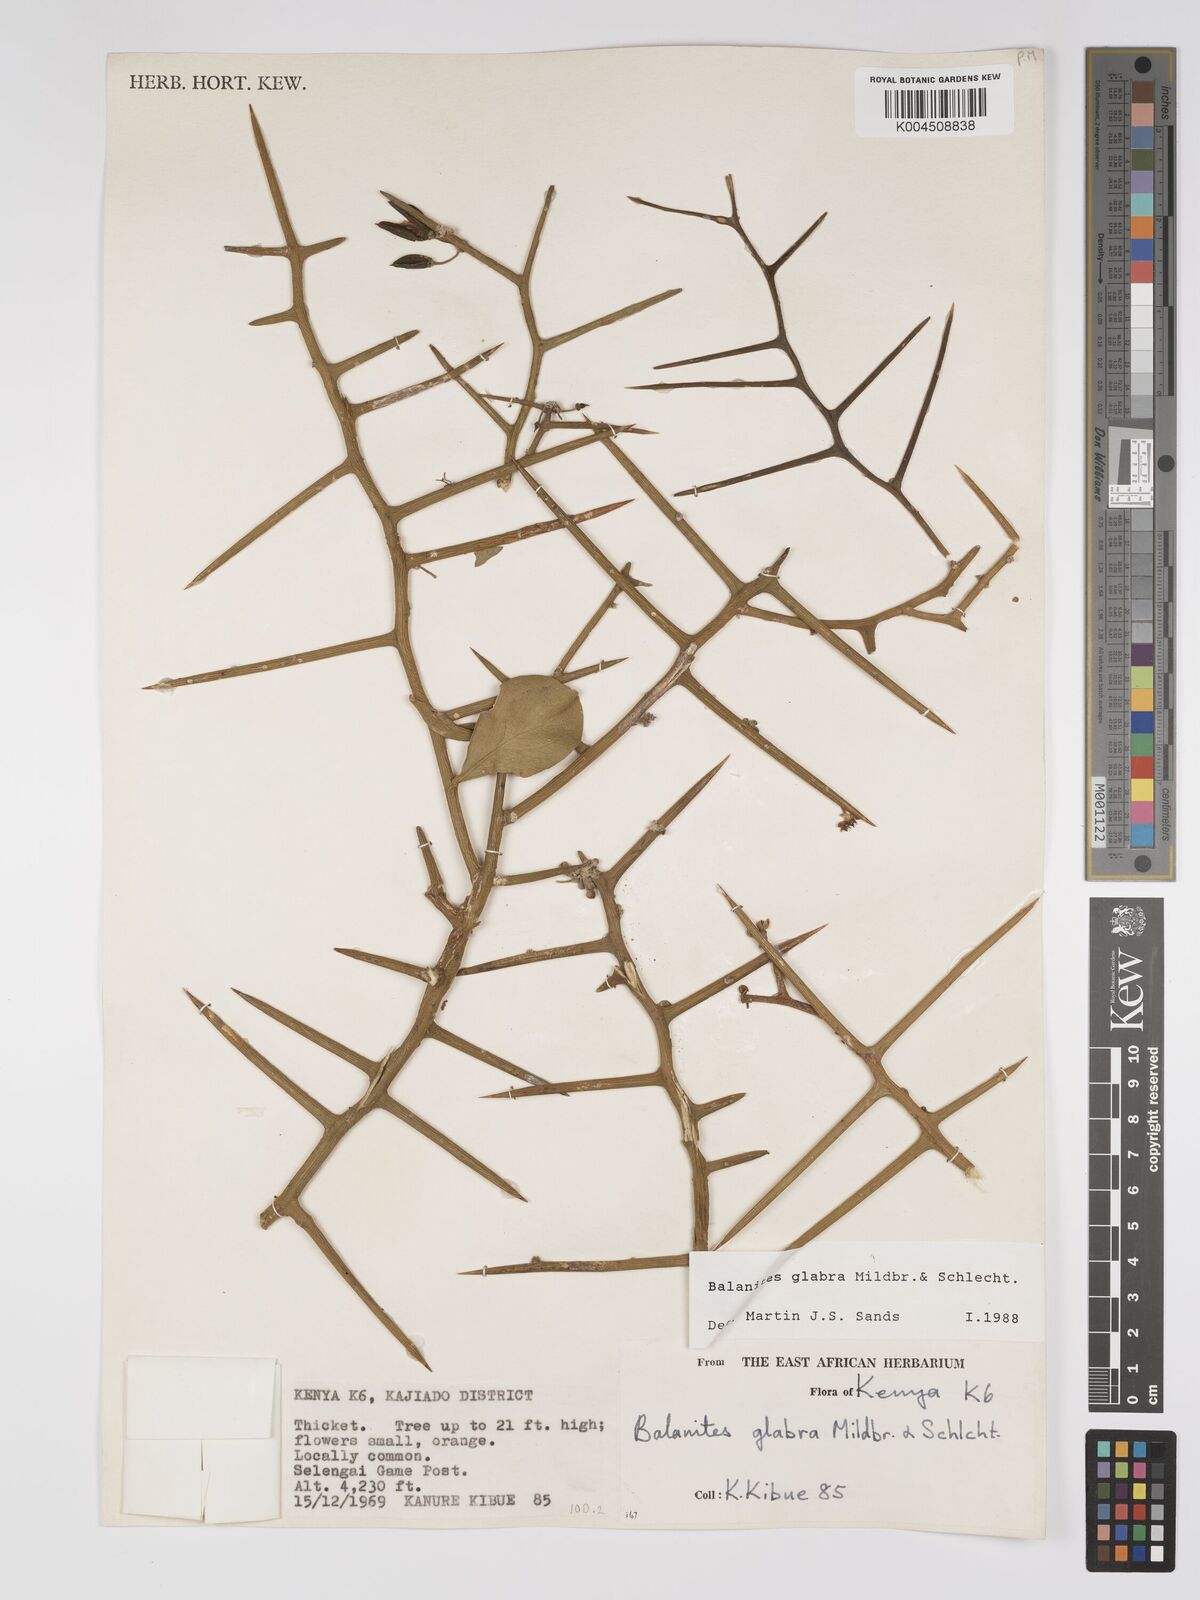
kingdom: Plantae
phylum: Tracheophyta
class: Magnoliopsida
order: Zygophyllales
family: Zygophyllaceae
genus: Balanites
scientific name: Balanites glabra
